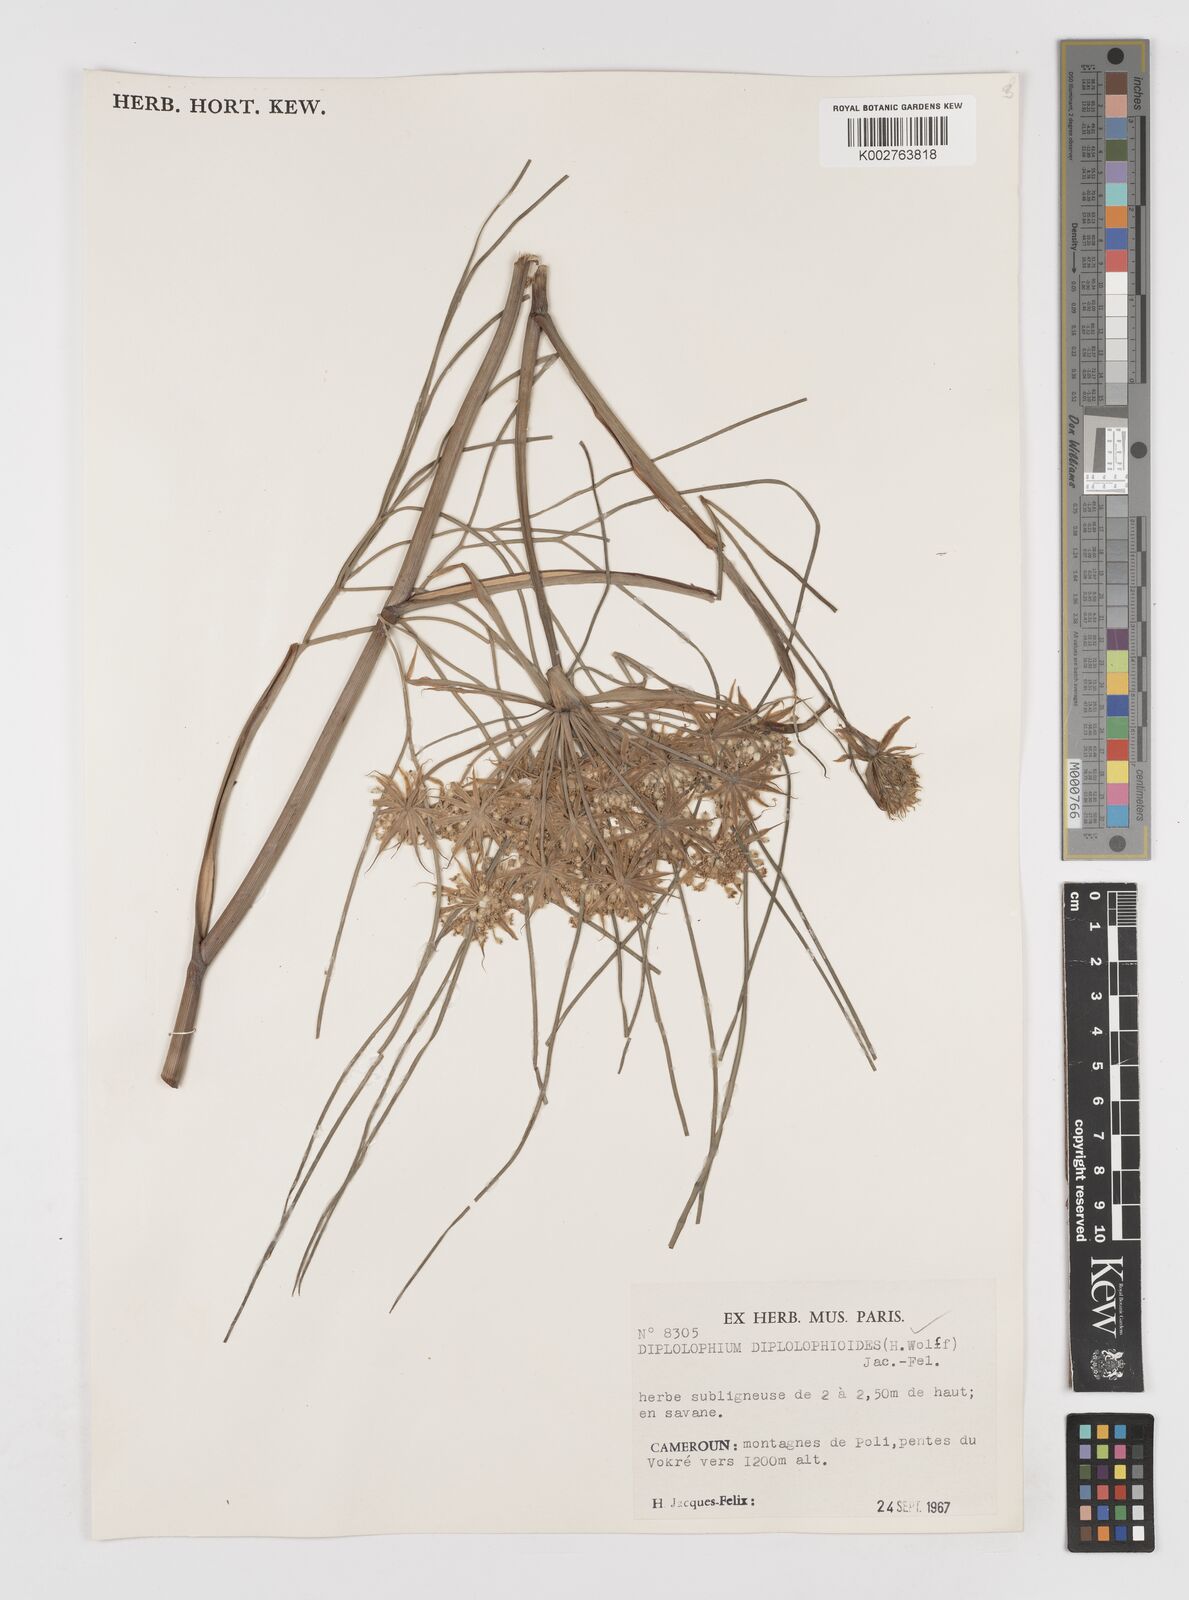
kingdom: Plantae
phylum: Tracheophyta
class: Magnoliopsida
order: Apiales
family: Apiaceae
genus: Diplolophium
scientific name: Diplolophium diplolophioides
